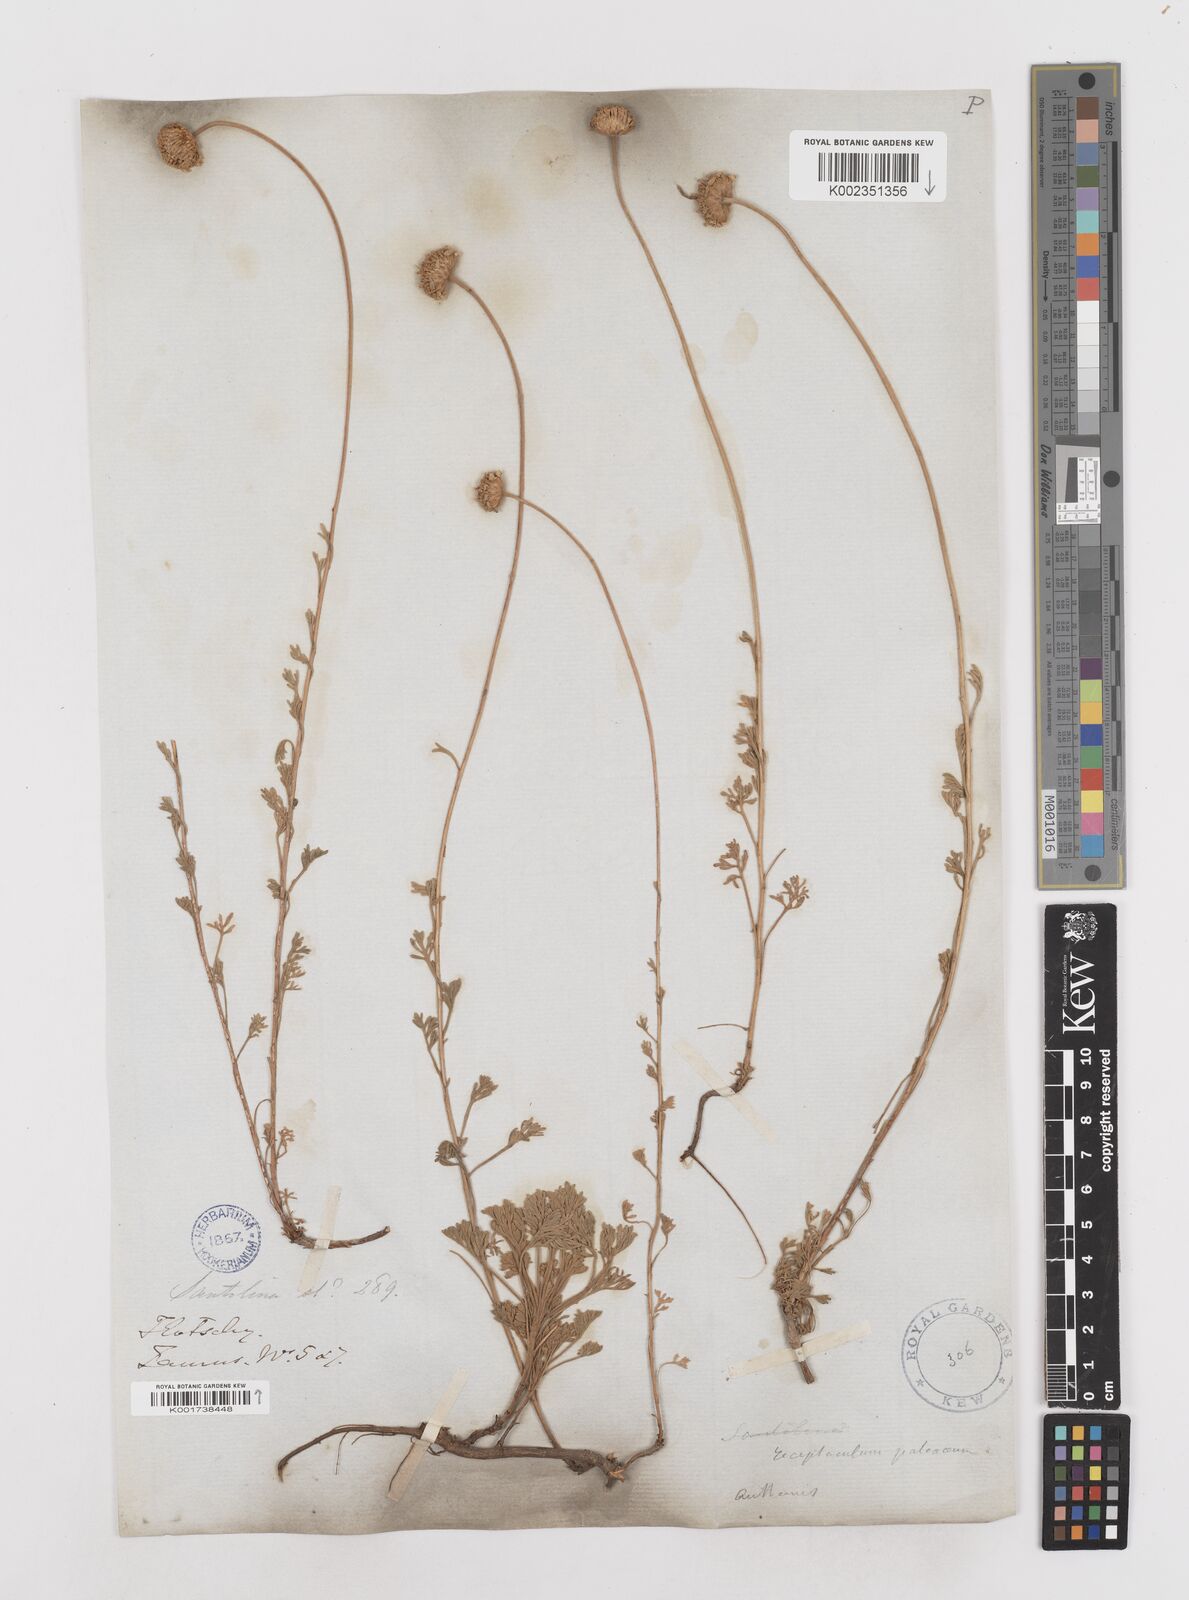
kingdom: Plantae
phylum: Tracheophyta
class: Magnoliopsida
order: Asterales
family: Asteraceae
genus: Anthemis
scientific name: Anthemis kotschyana
